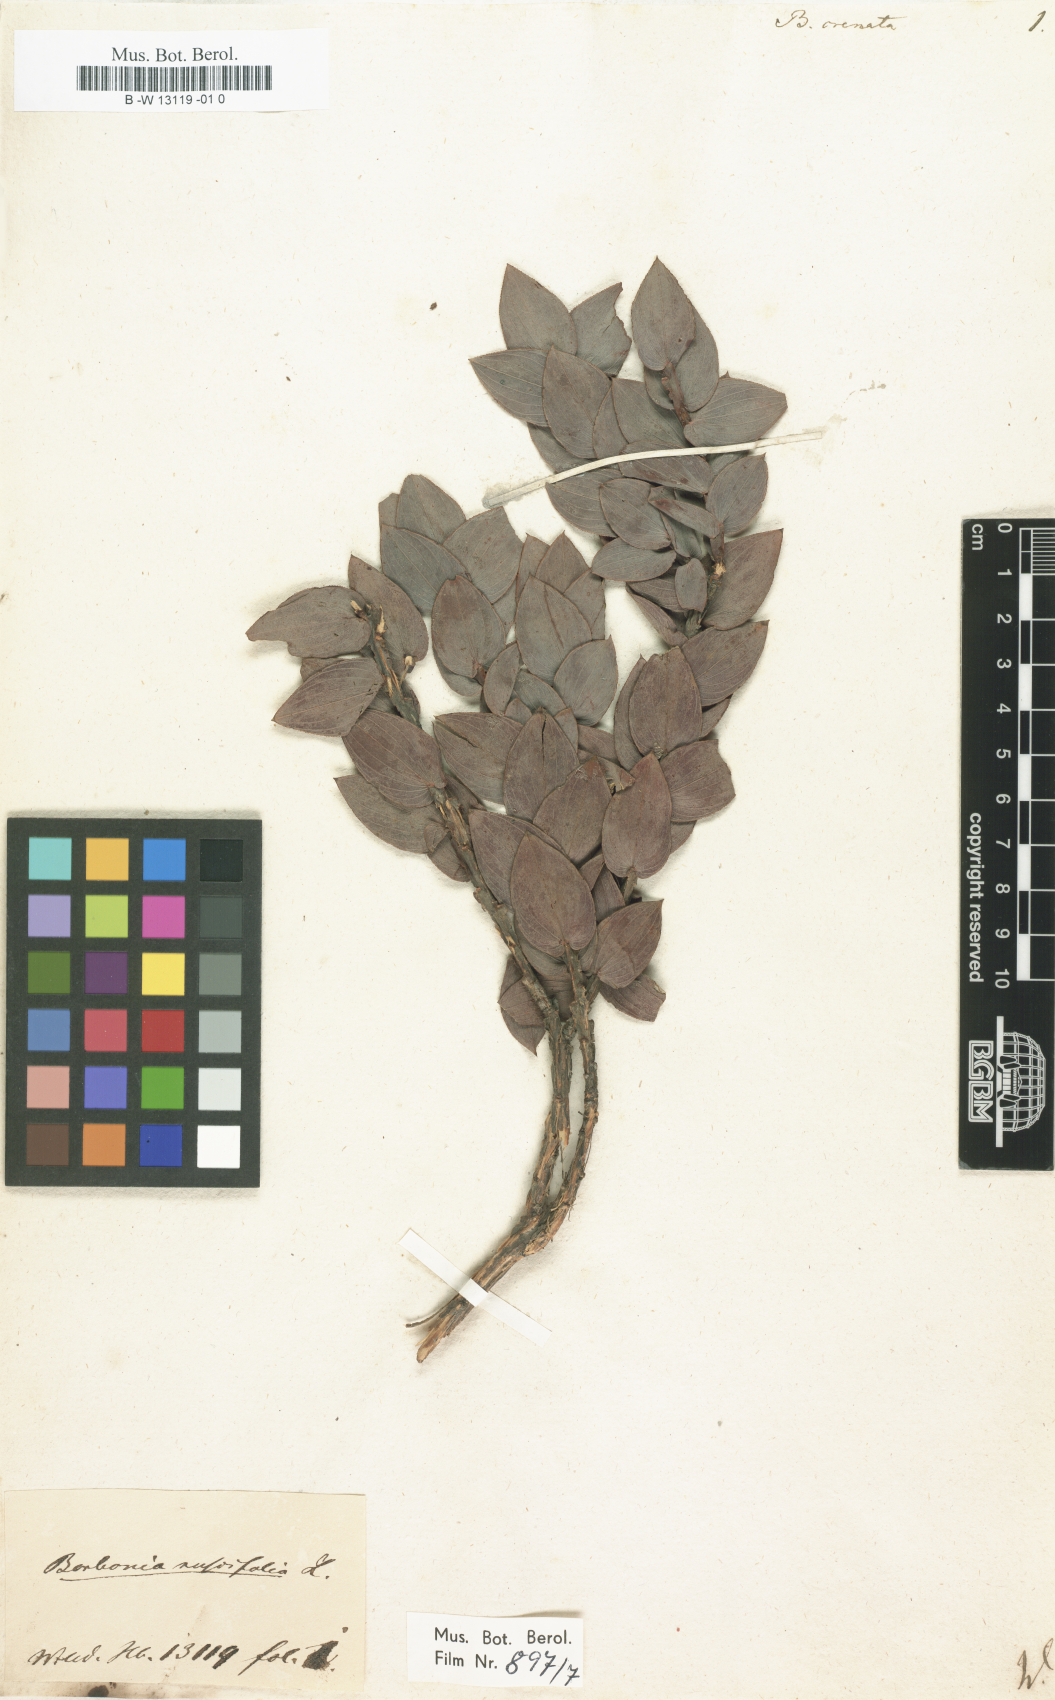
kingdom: Plantae
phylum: Tracheophyta
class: Magnoliopsida
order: Fabales
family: Fabaceae
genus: Aspalathus
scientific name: Aspalathus
